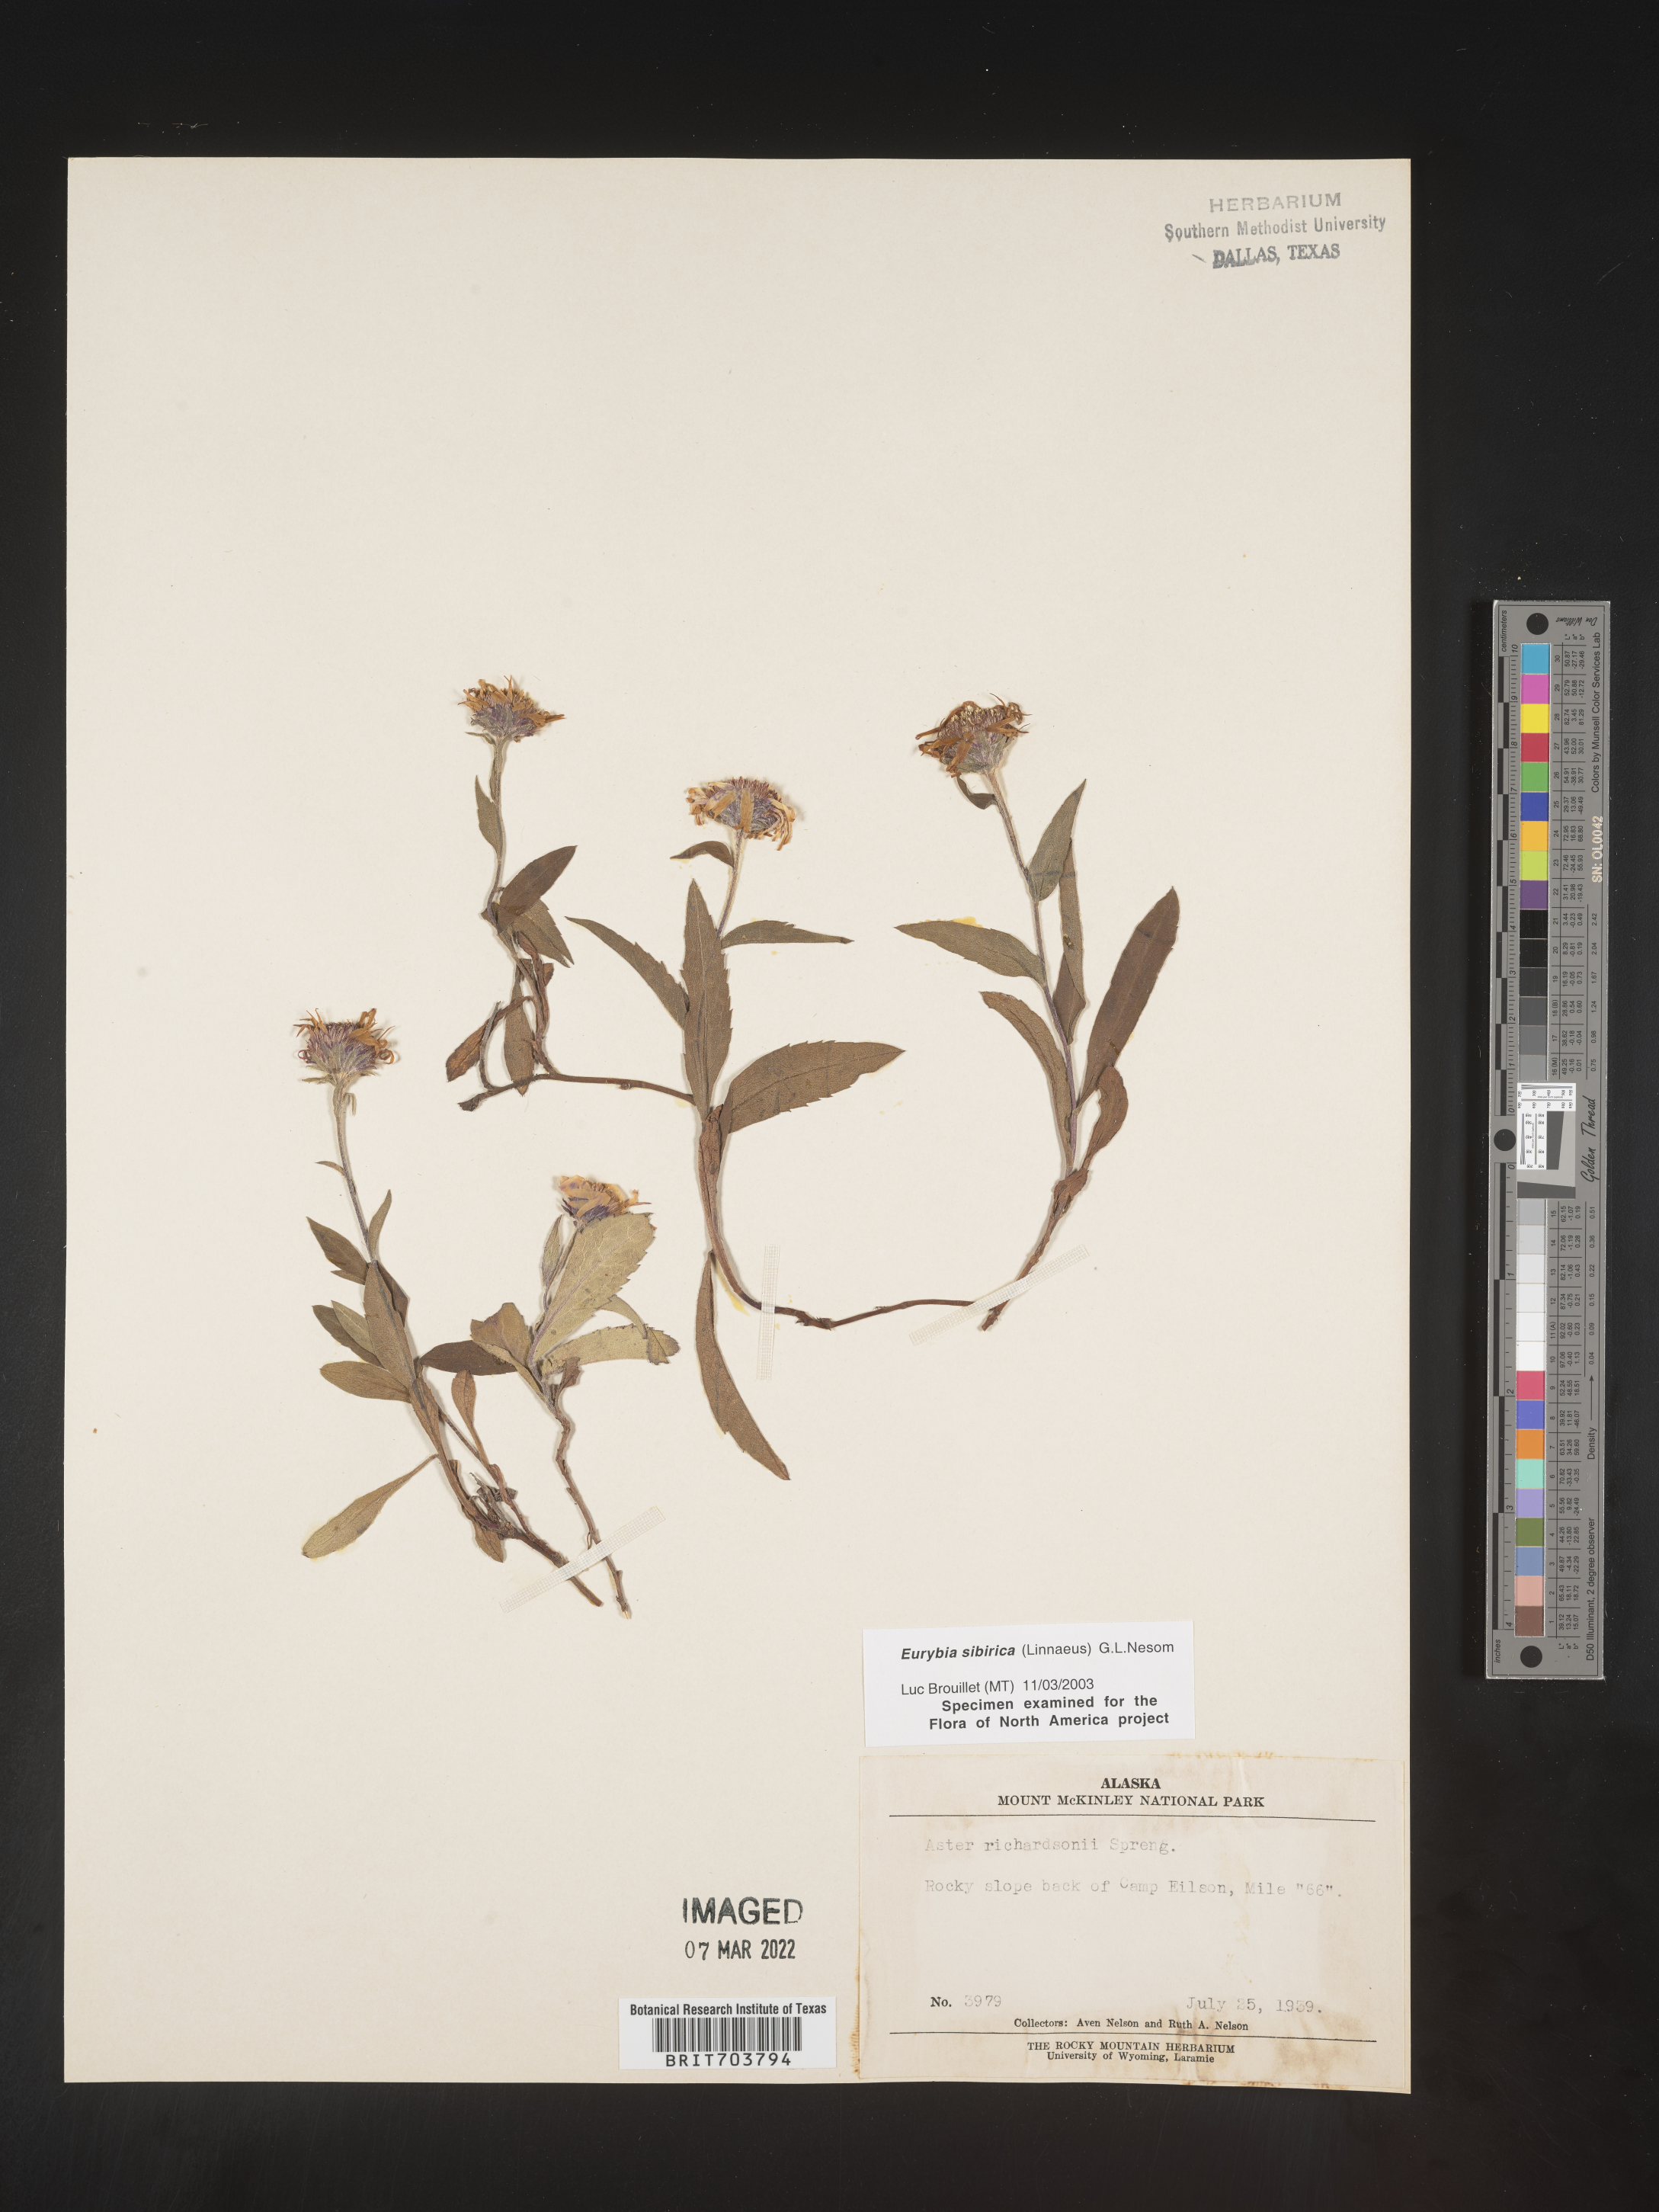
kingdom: Plantae
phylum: Tracheophyta
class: Magnoliopsida
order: Asterales
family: Asteraceae
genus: Eurybia
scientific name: Eurybia sibirica
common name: Arctic aster
